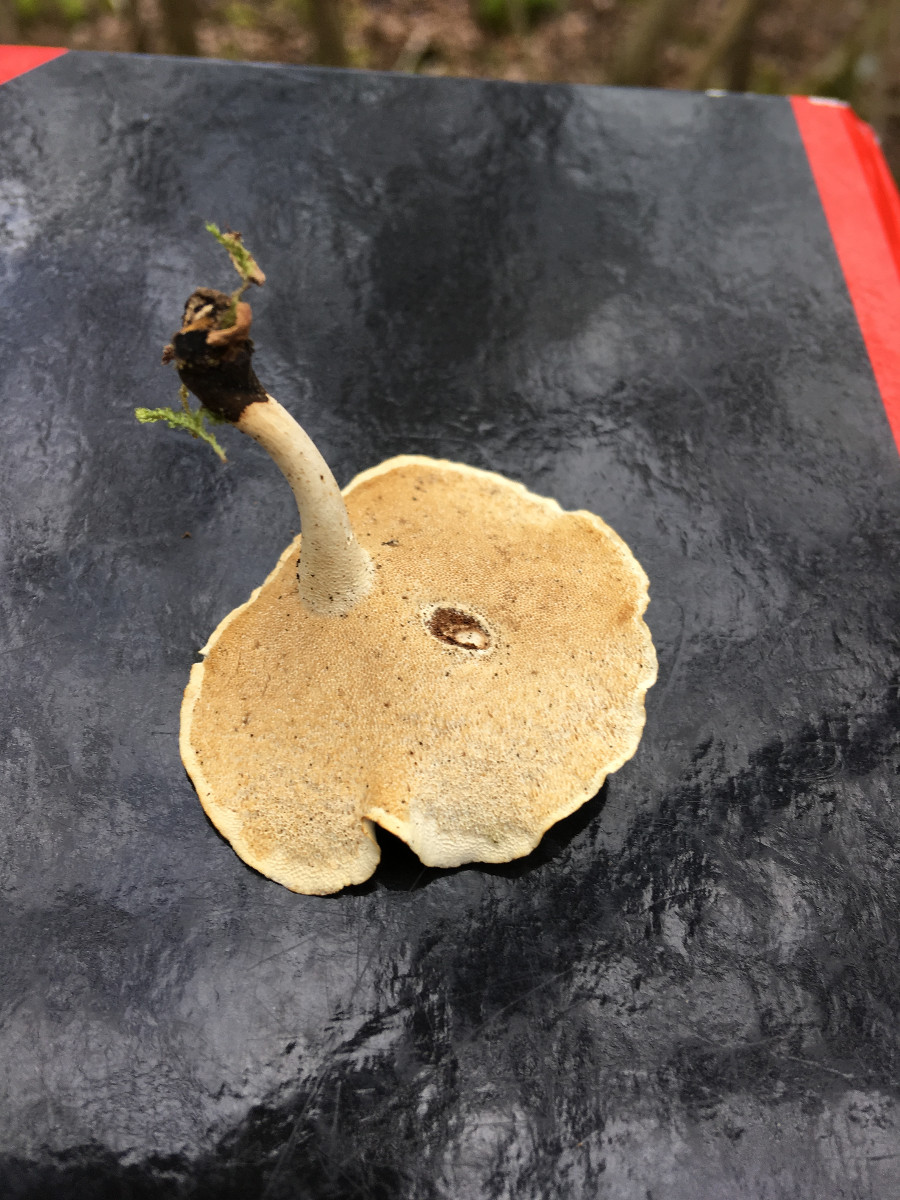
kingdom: Fungi
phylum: Basidiomycota
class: Agaricomycetes
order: Polyporales
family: Polyporaceae
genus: Cerioporus
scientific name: Cerioporus varius
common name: foranderlig stilkporesvamp
